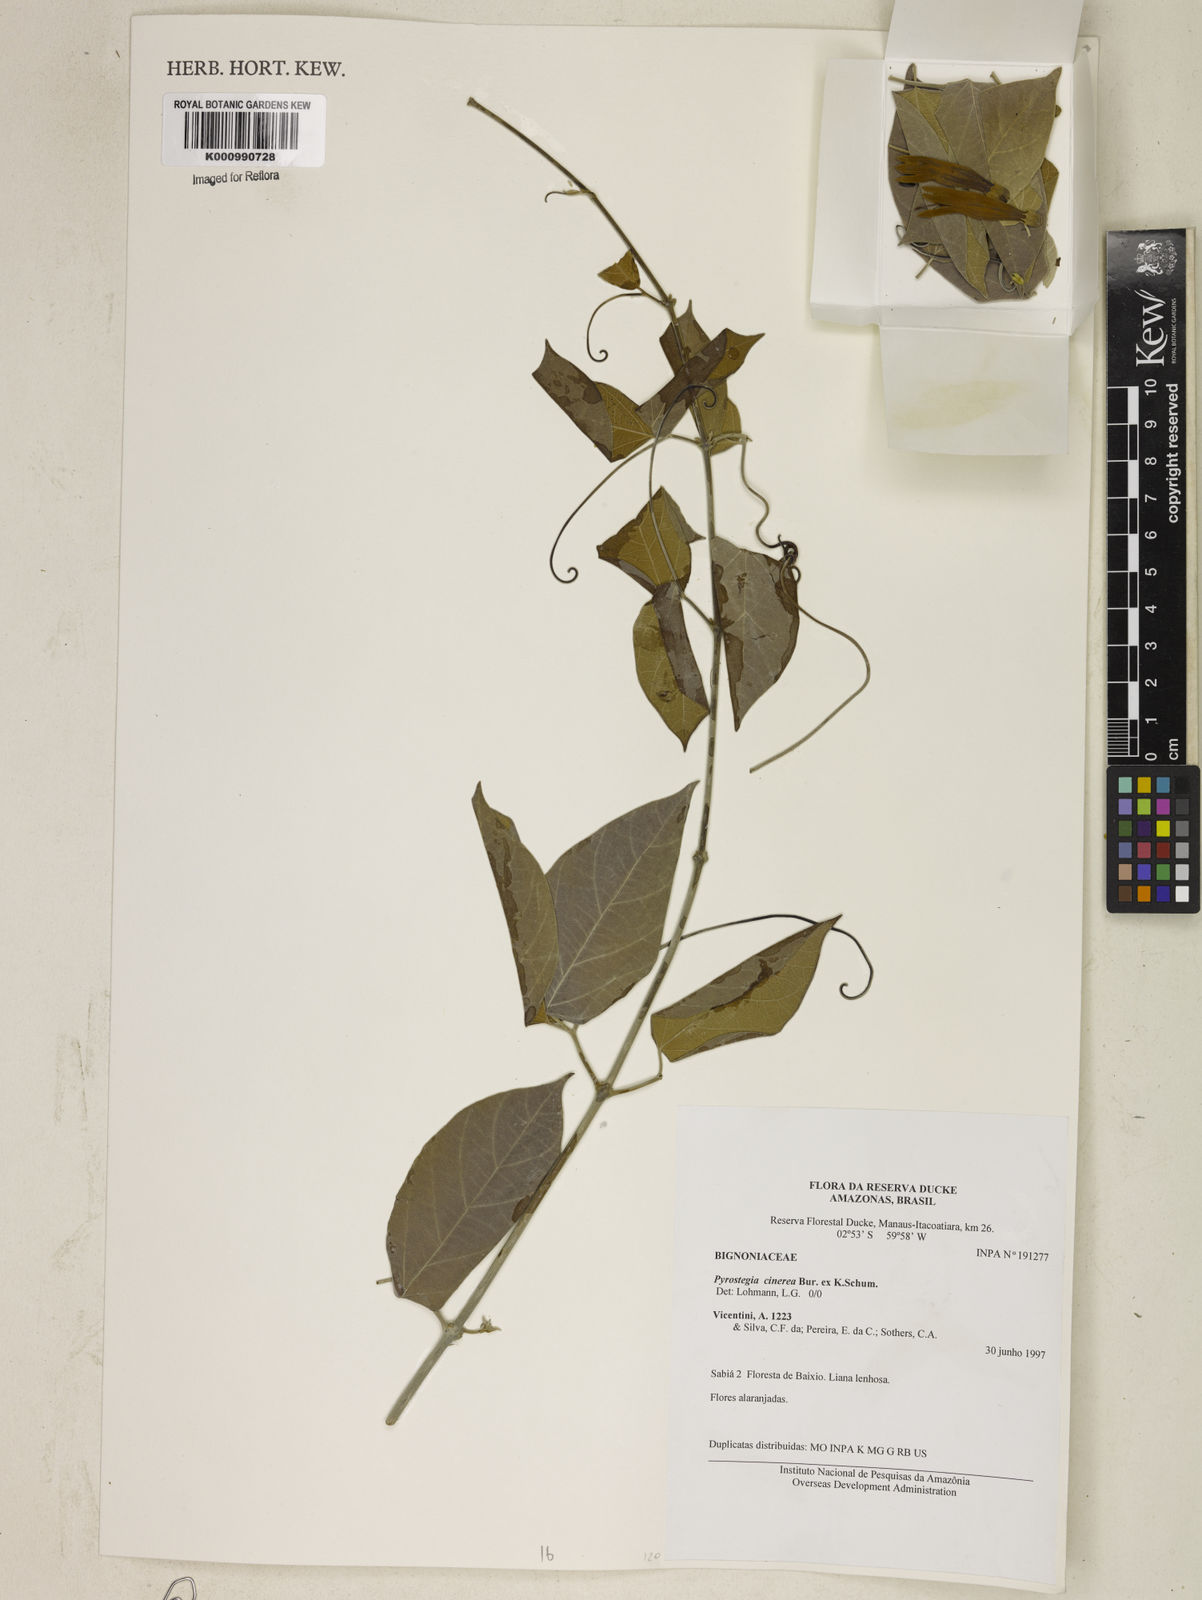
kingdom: Plantae
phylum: Tracheophyta
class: Magnoliopsida
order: Lamiales
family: Bignoniaceae
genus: Pyrostegia
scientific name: Pyrostegia
